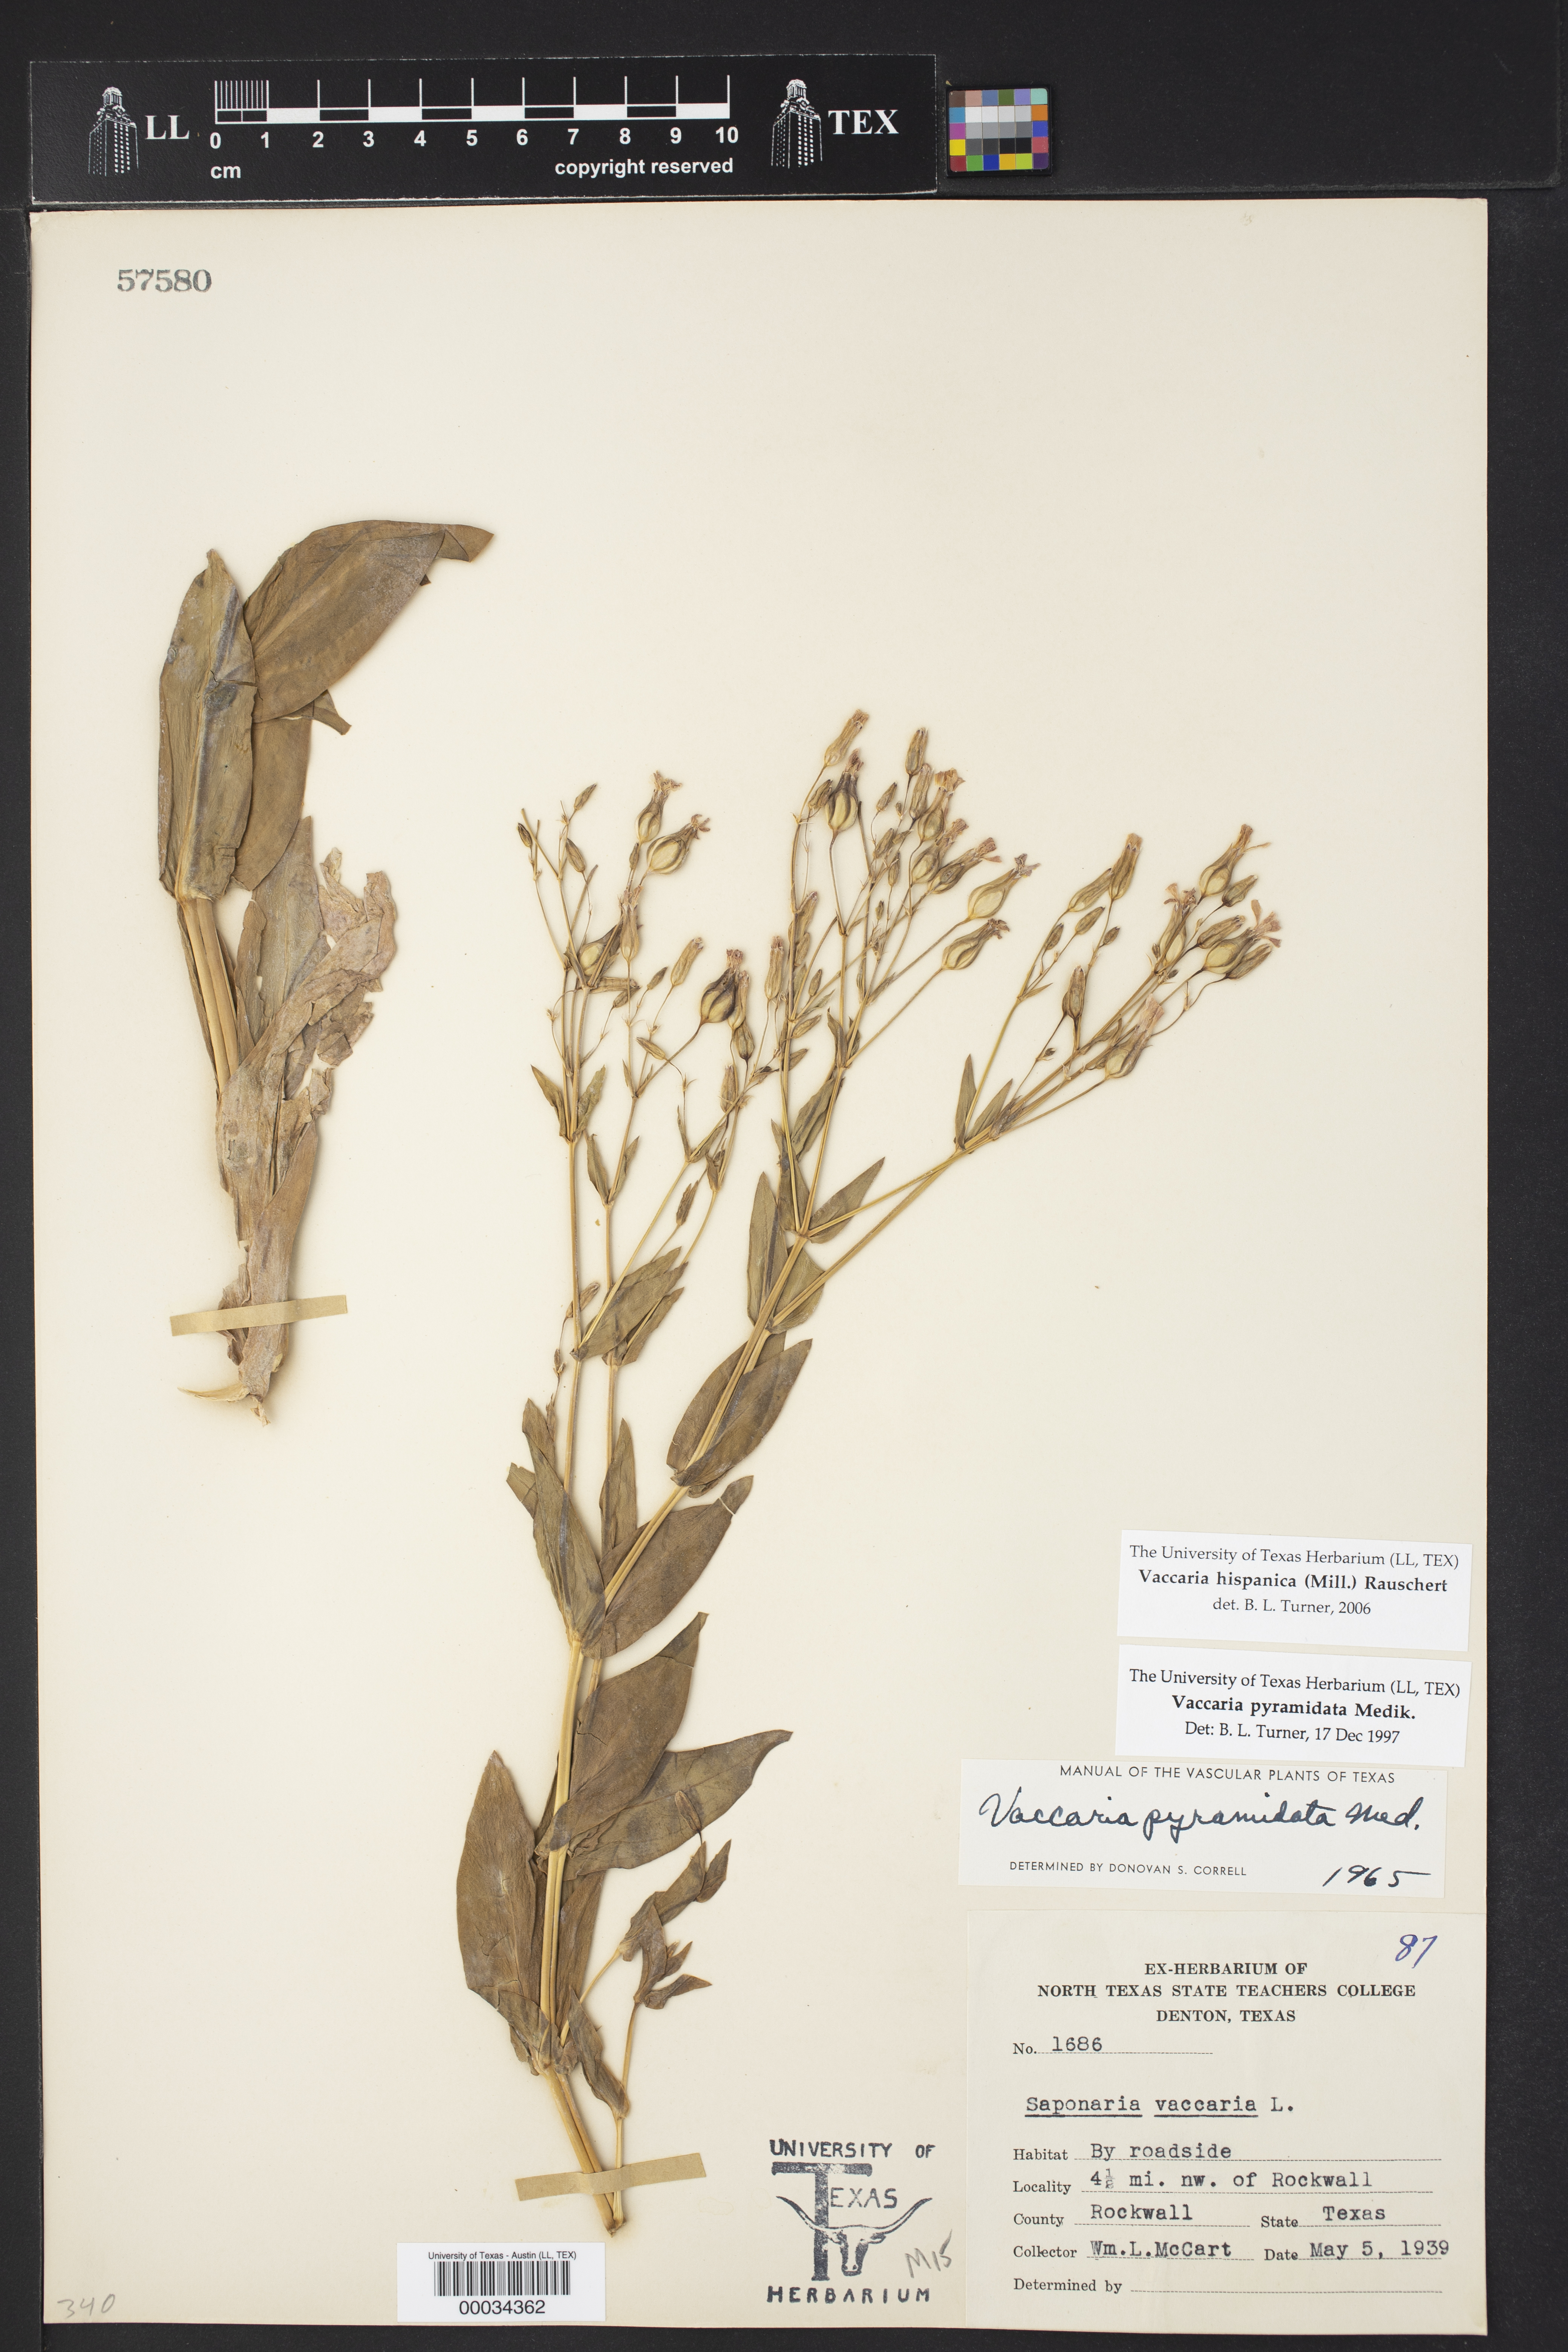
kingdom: Plantae
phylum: Tracheophyta
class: Magnoliopsida
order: Caryophyllales
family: Caryophyllaceae
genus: Gypsophila
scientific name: Gypsophila vaccaria
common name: Cow soapwort
